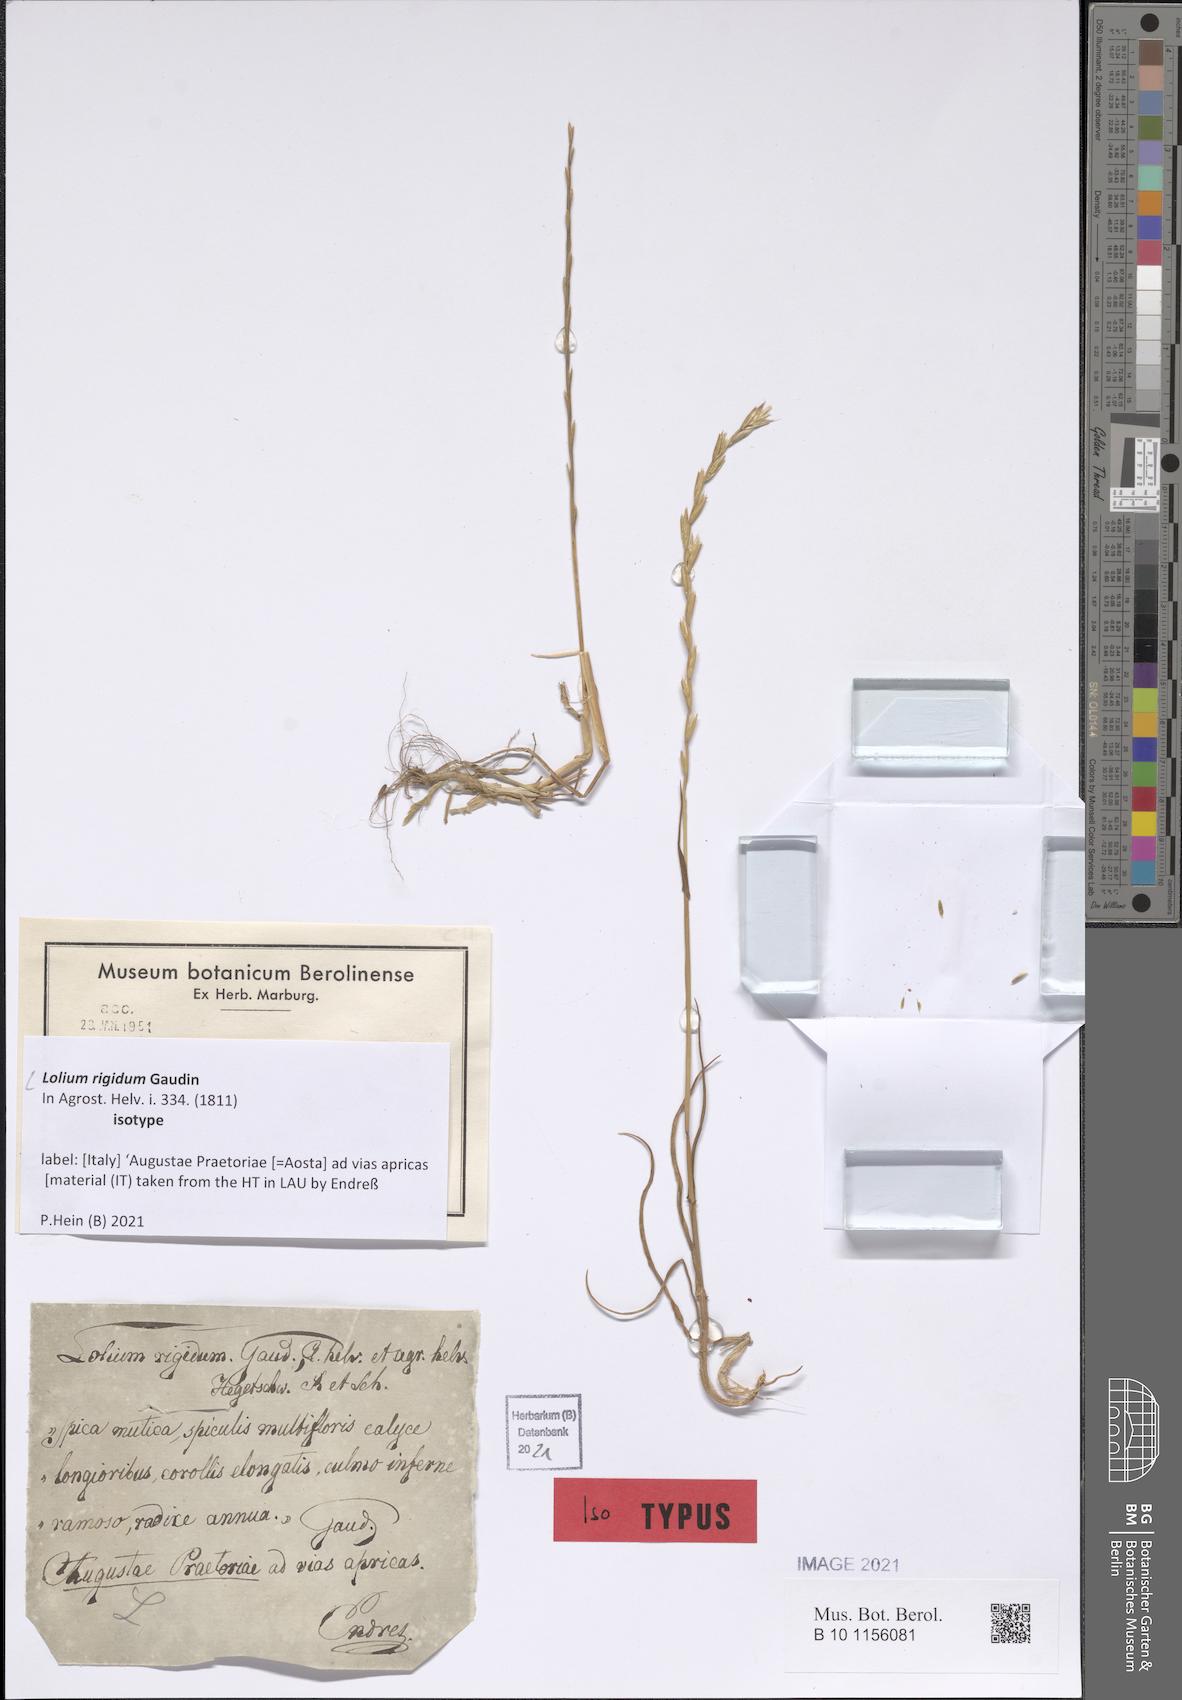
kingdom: Plantae
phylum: Tracheophyta
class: Liliopsida
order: Poales
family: Poaceae
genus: Lolium
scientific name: Lolium rigidum
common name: Wimmera ryegrass
